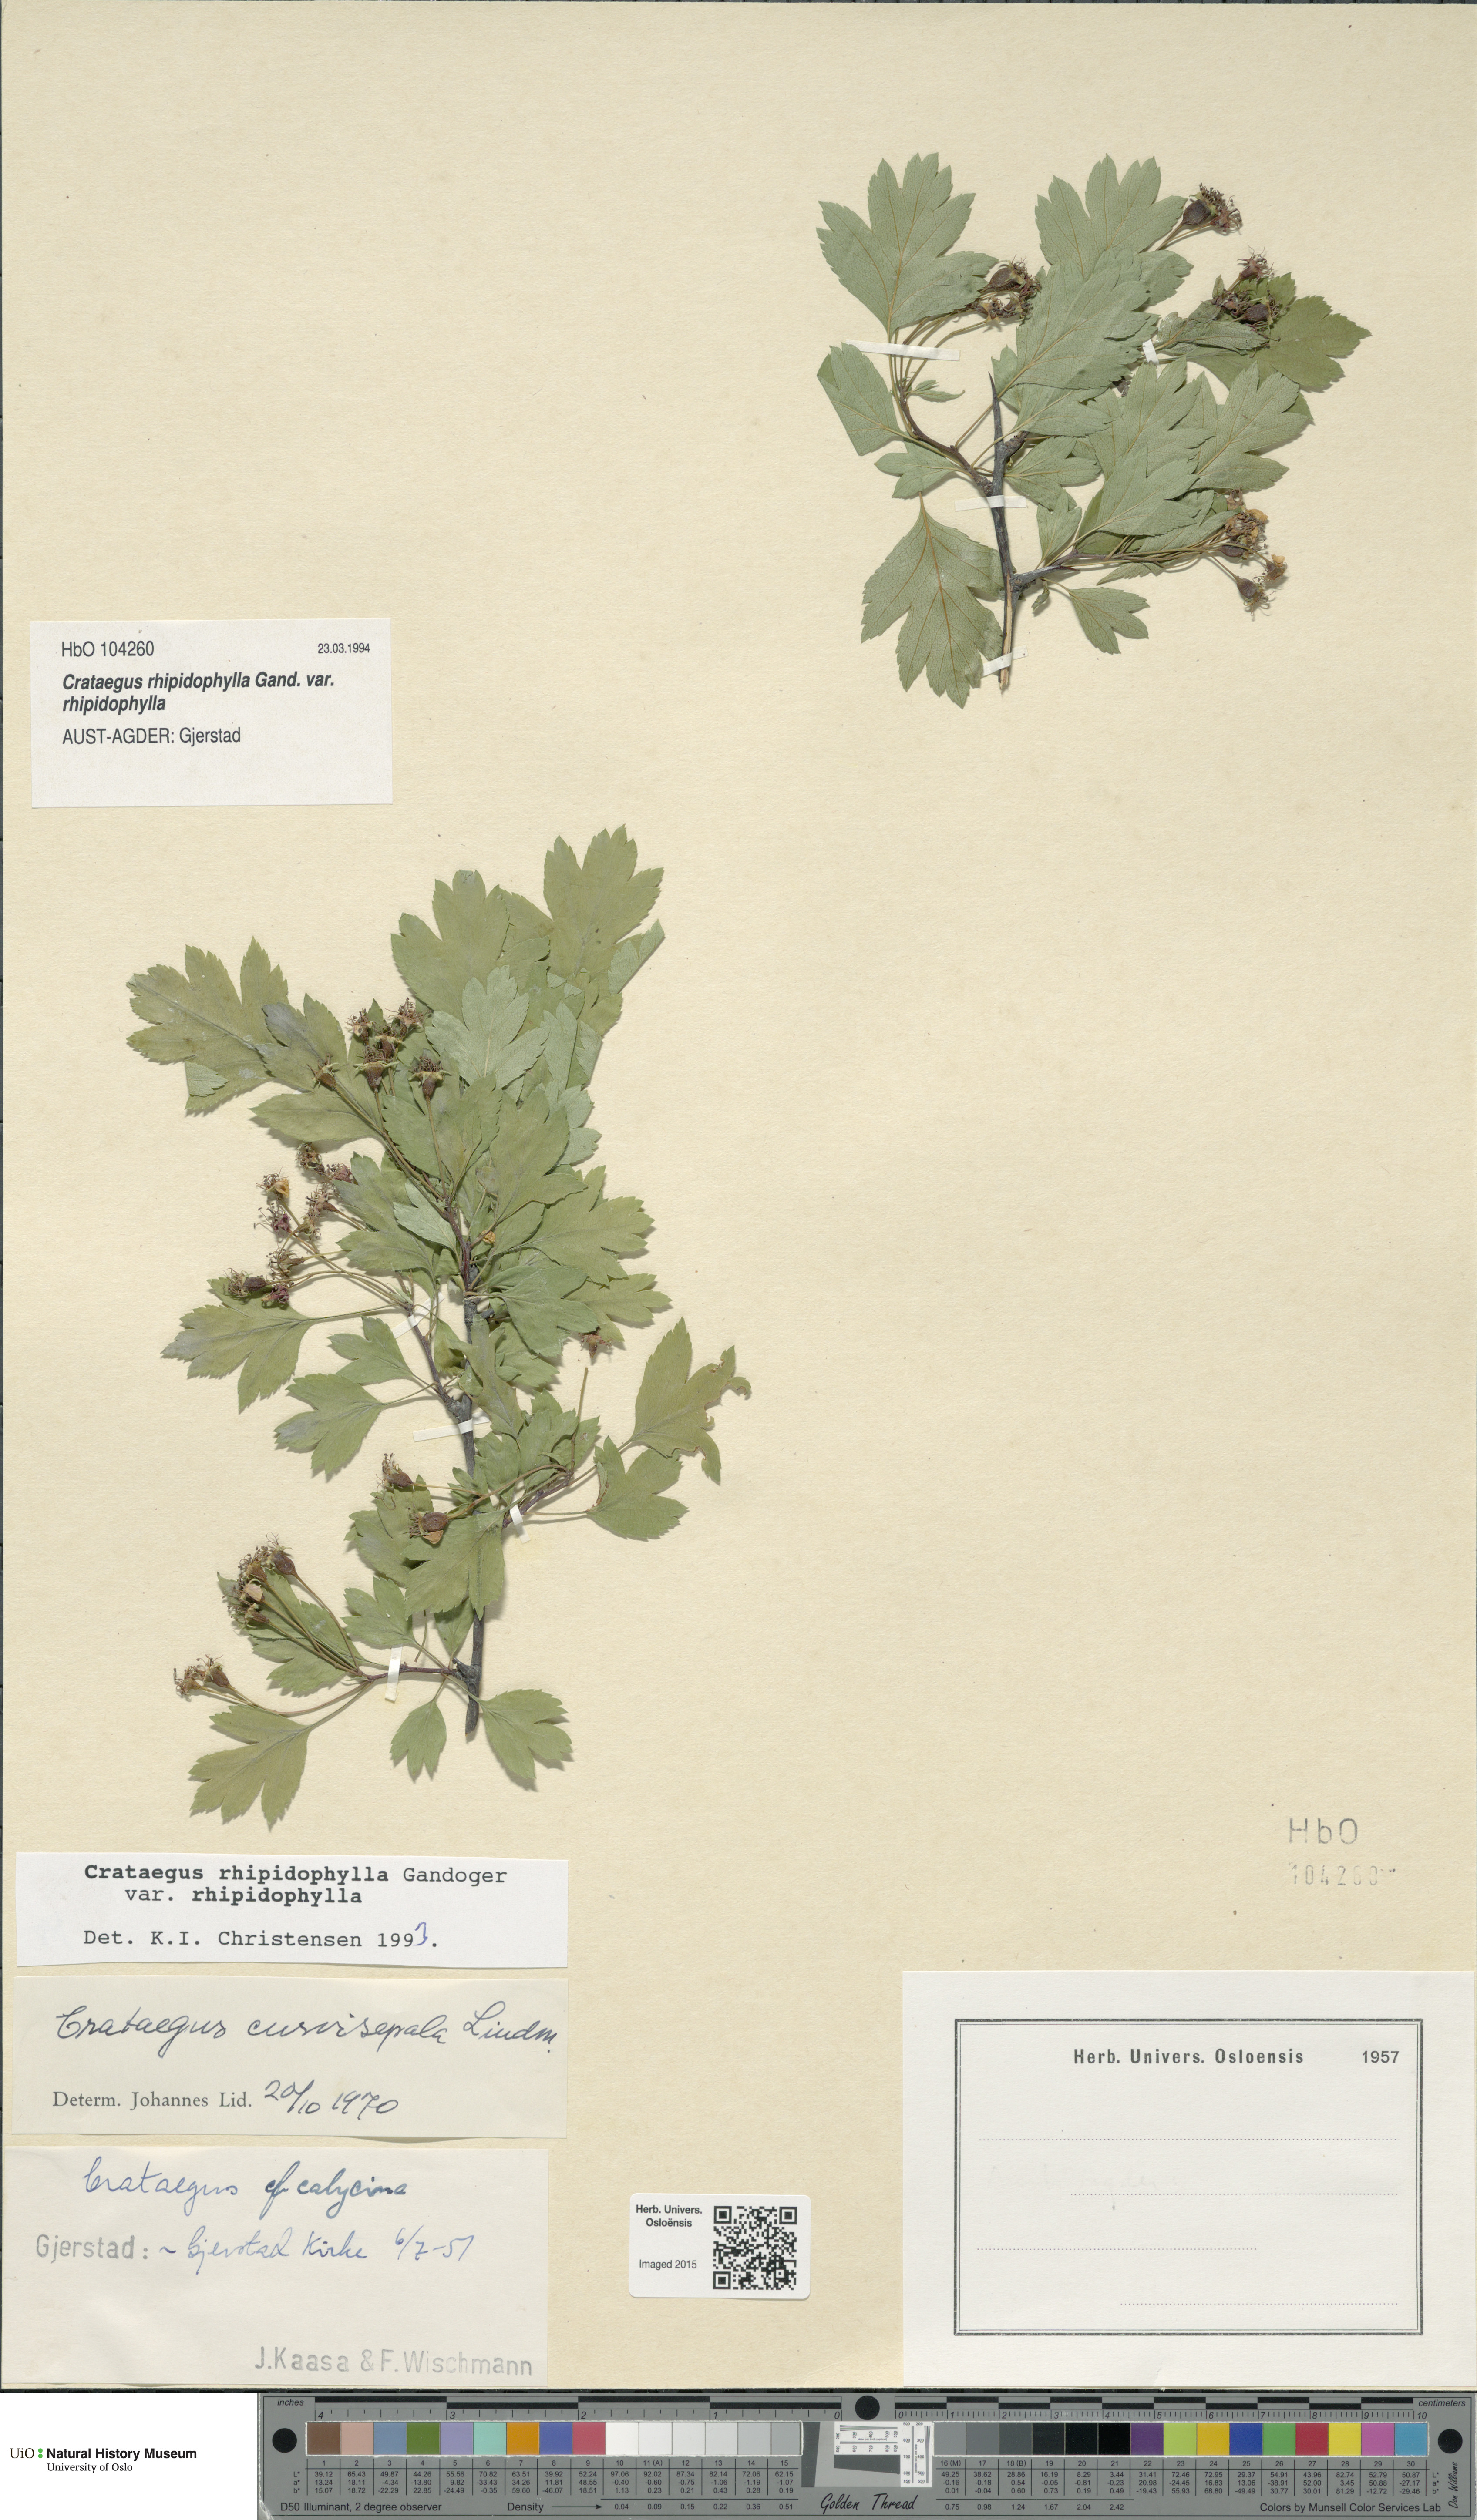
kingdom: Plantae
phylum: Tracheophyta
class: Magnoliopsida
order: Rosales
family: Rosaceae
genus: Crataegus
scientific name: Crataegus rhipidophylla
